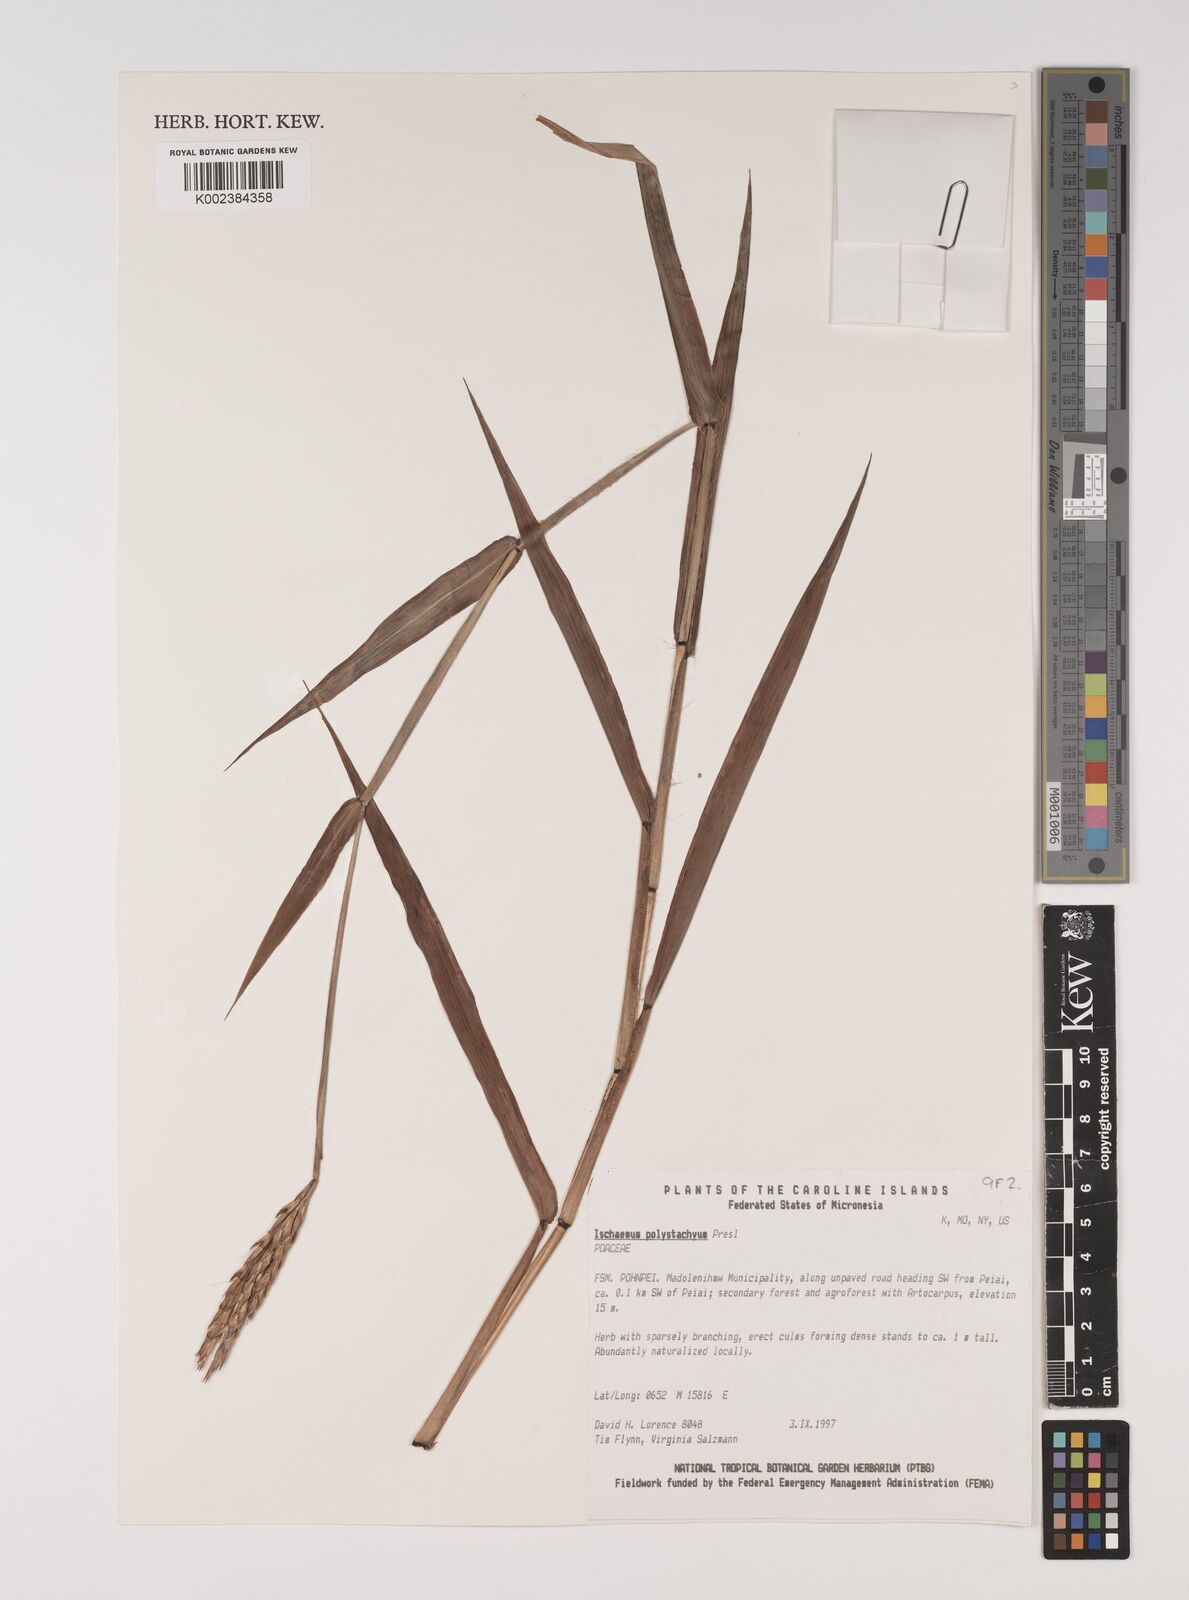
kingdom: Plantae
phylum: Tracheophyta
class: Liliopsida
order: Poales
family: Poaceae
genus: Ischaemum
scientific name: Ischaemum polystachyum
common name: Paddle grass
